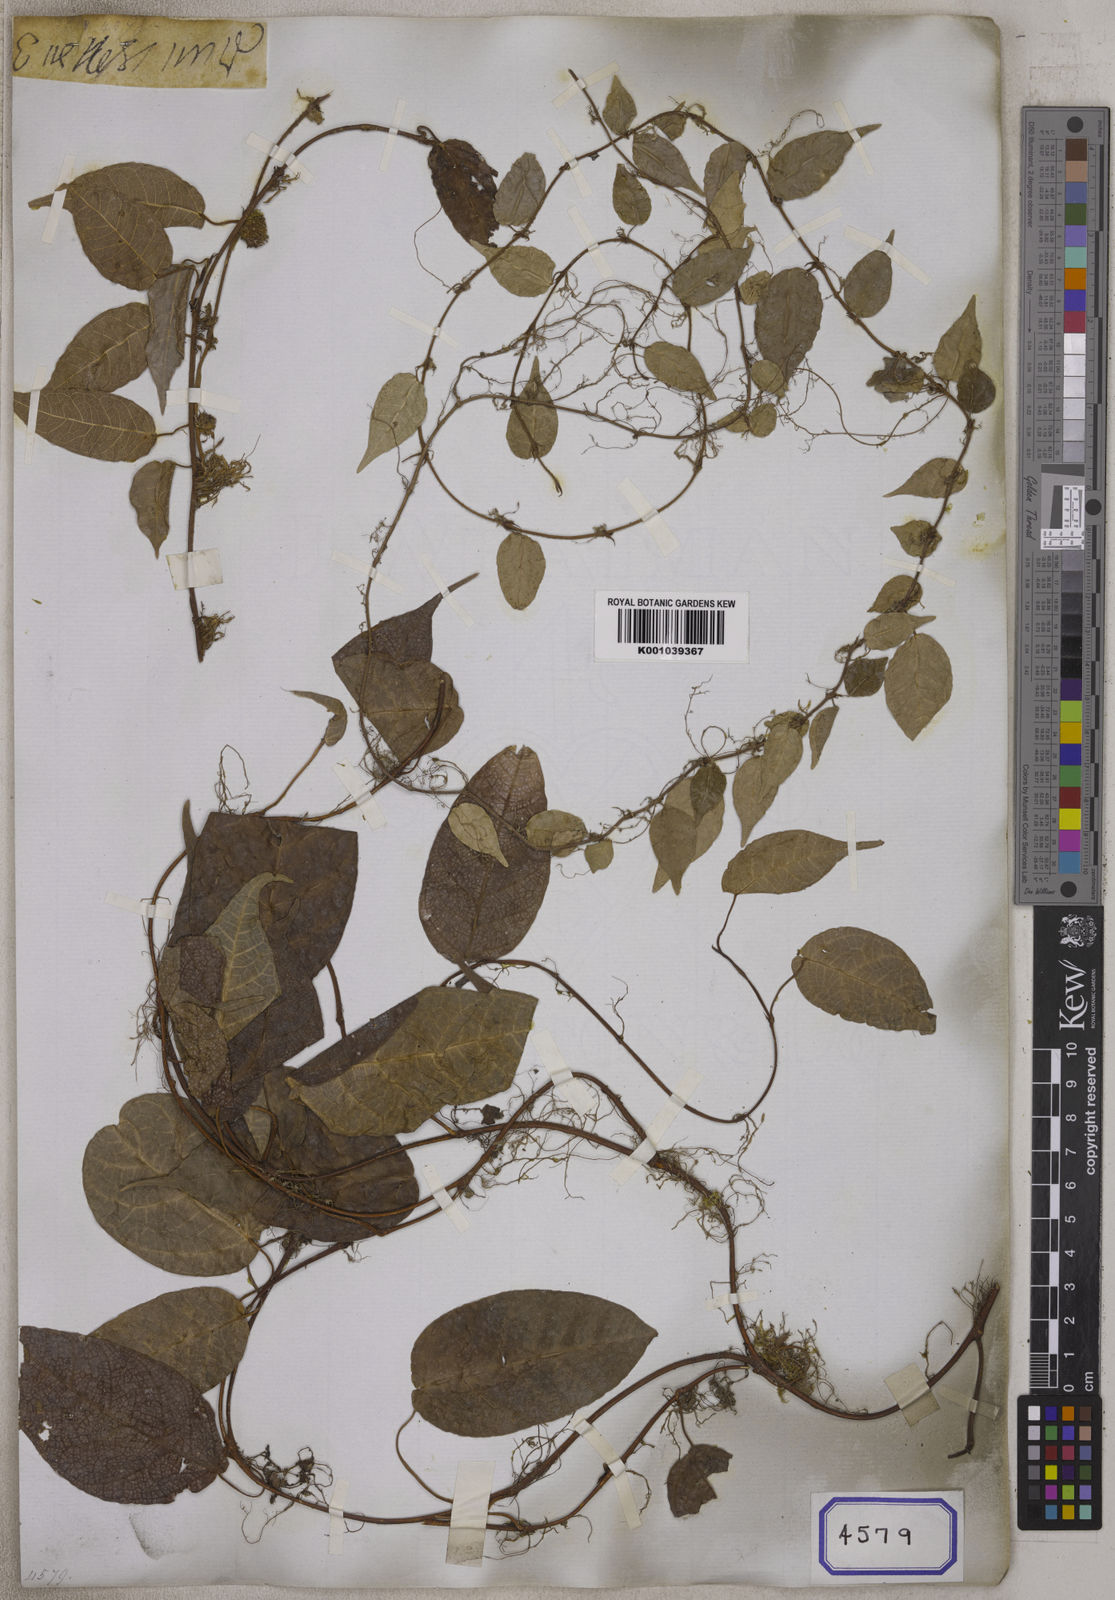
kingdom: Plantae
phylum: Tracheophyta
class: Magnoliopsida
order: Rosales
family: Moraceae
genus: Ficus
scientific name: Ficus hederacea
